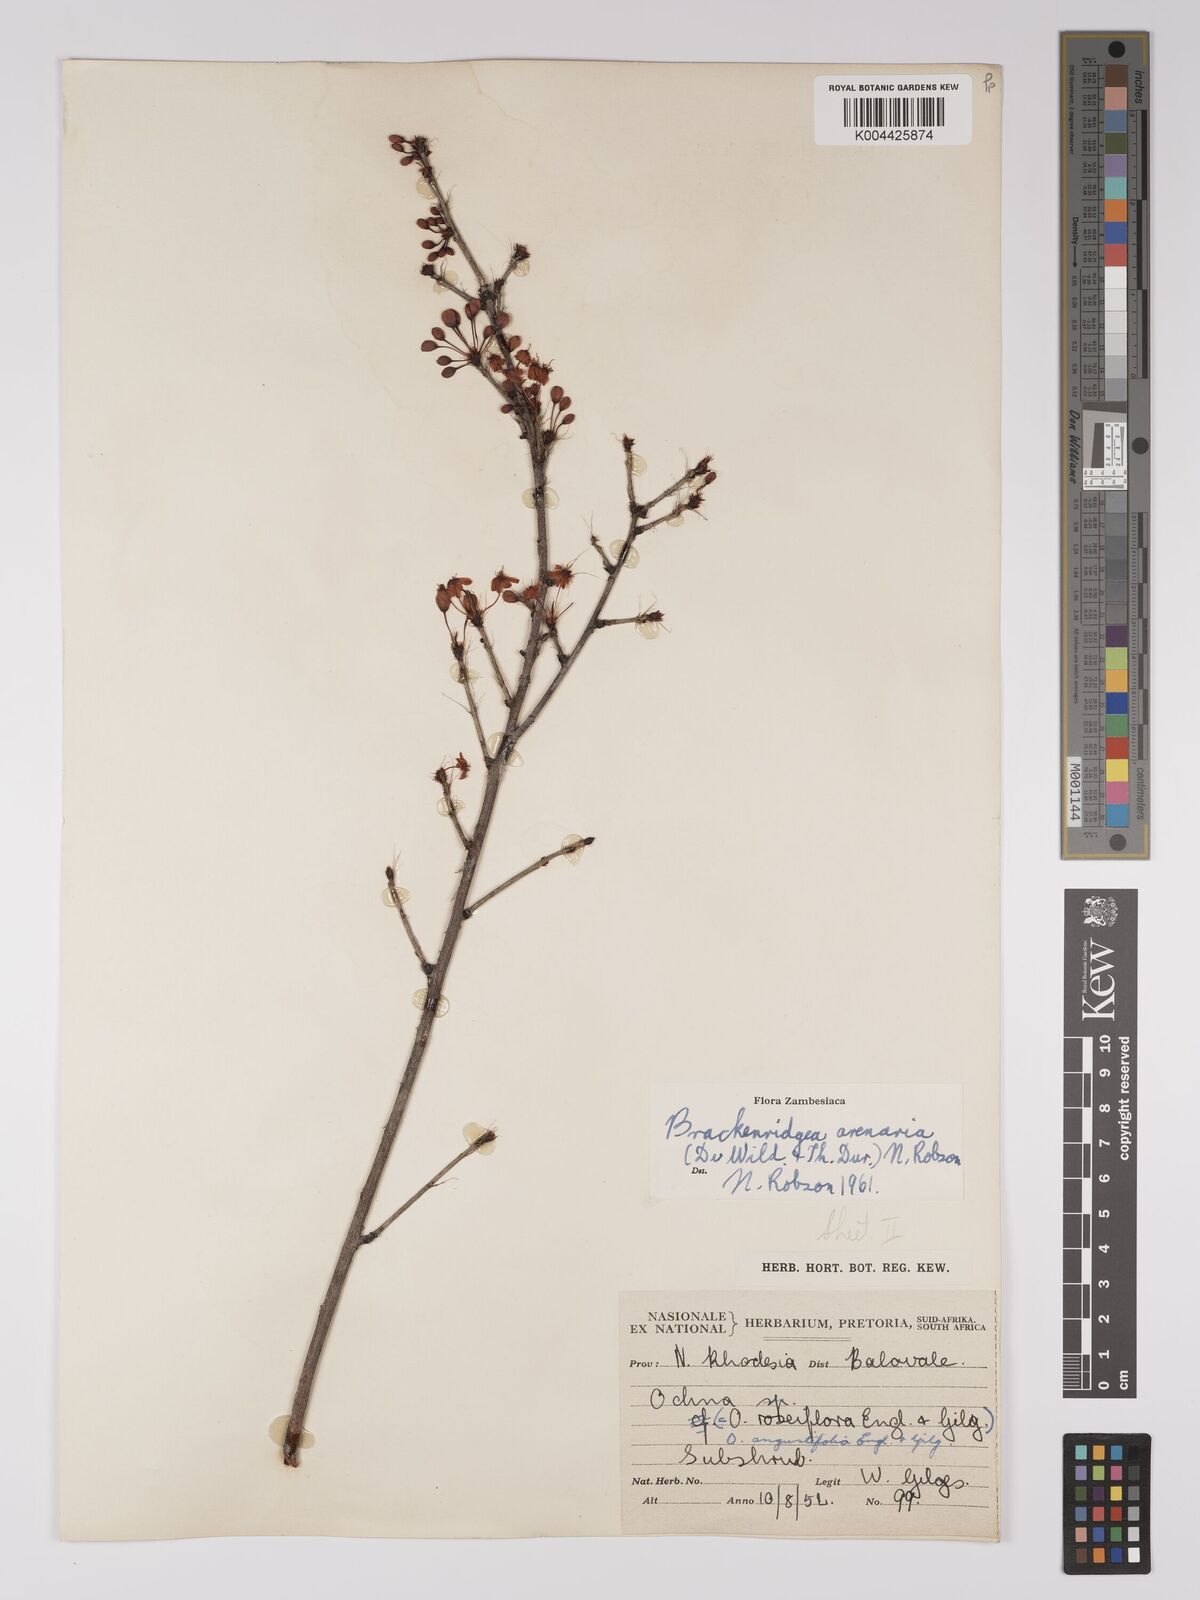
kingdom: Plantae
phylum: Tracheophyta
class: Magnoliopsida
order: Malpighiales
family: Ochnaceae
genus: Ochna
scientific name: Ochna arenaria
